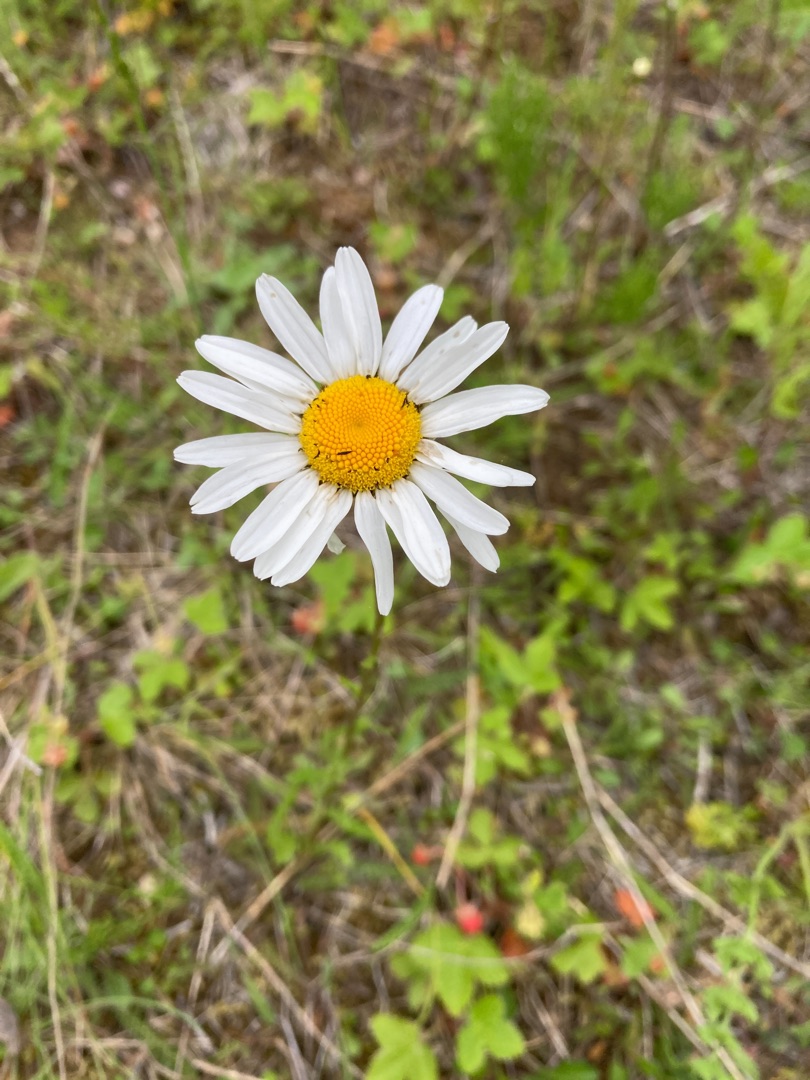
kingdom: Plantae
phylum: Tracheophyta
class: Magnoliopsida
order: Asterales
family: Asteraceae
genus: Leucanthemum
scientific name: Leucanthemum vulgare
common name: Hvid okseøje
